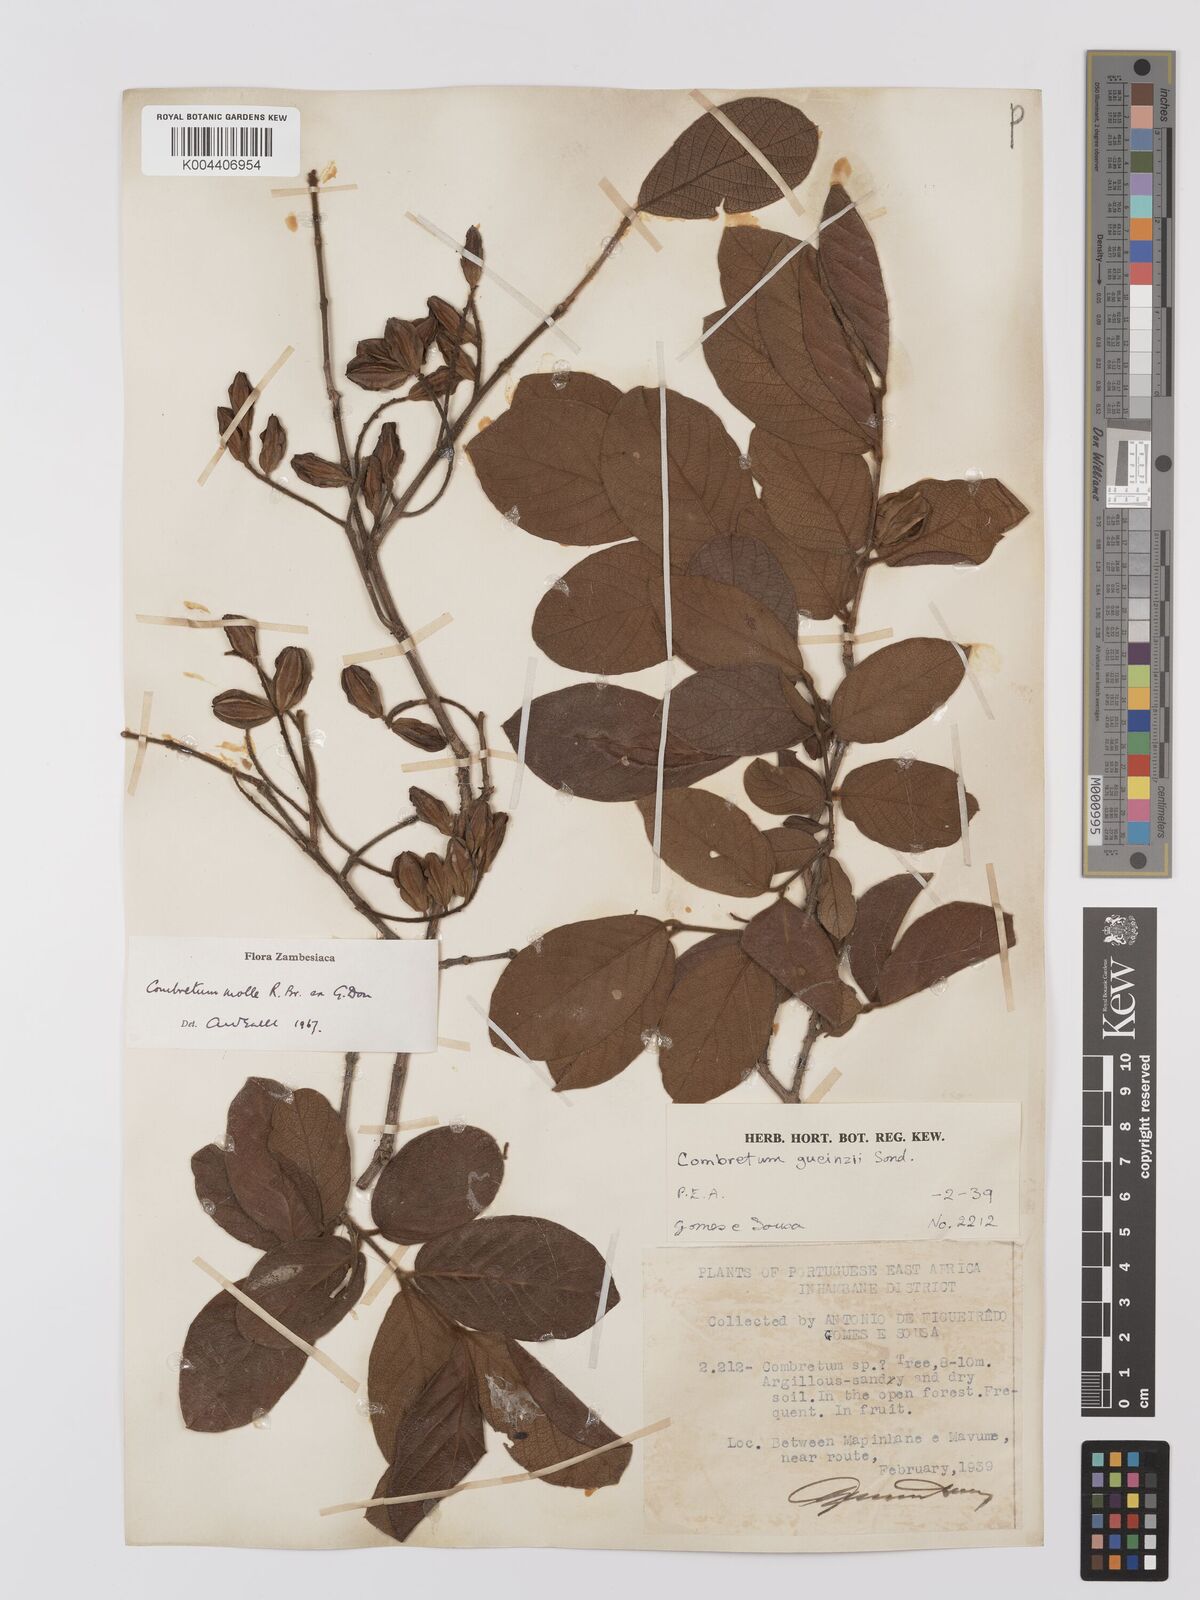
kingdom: Plantae
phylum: Tracheophyta
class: Magnoliopsida
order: Myrtales
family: Combretaceae
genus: Combretum
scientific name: Combretum
